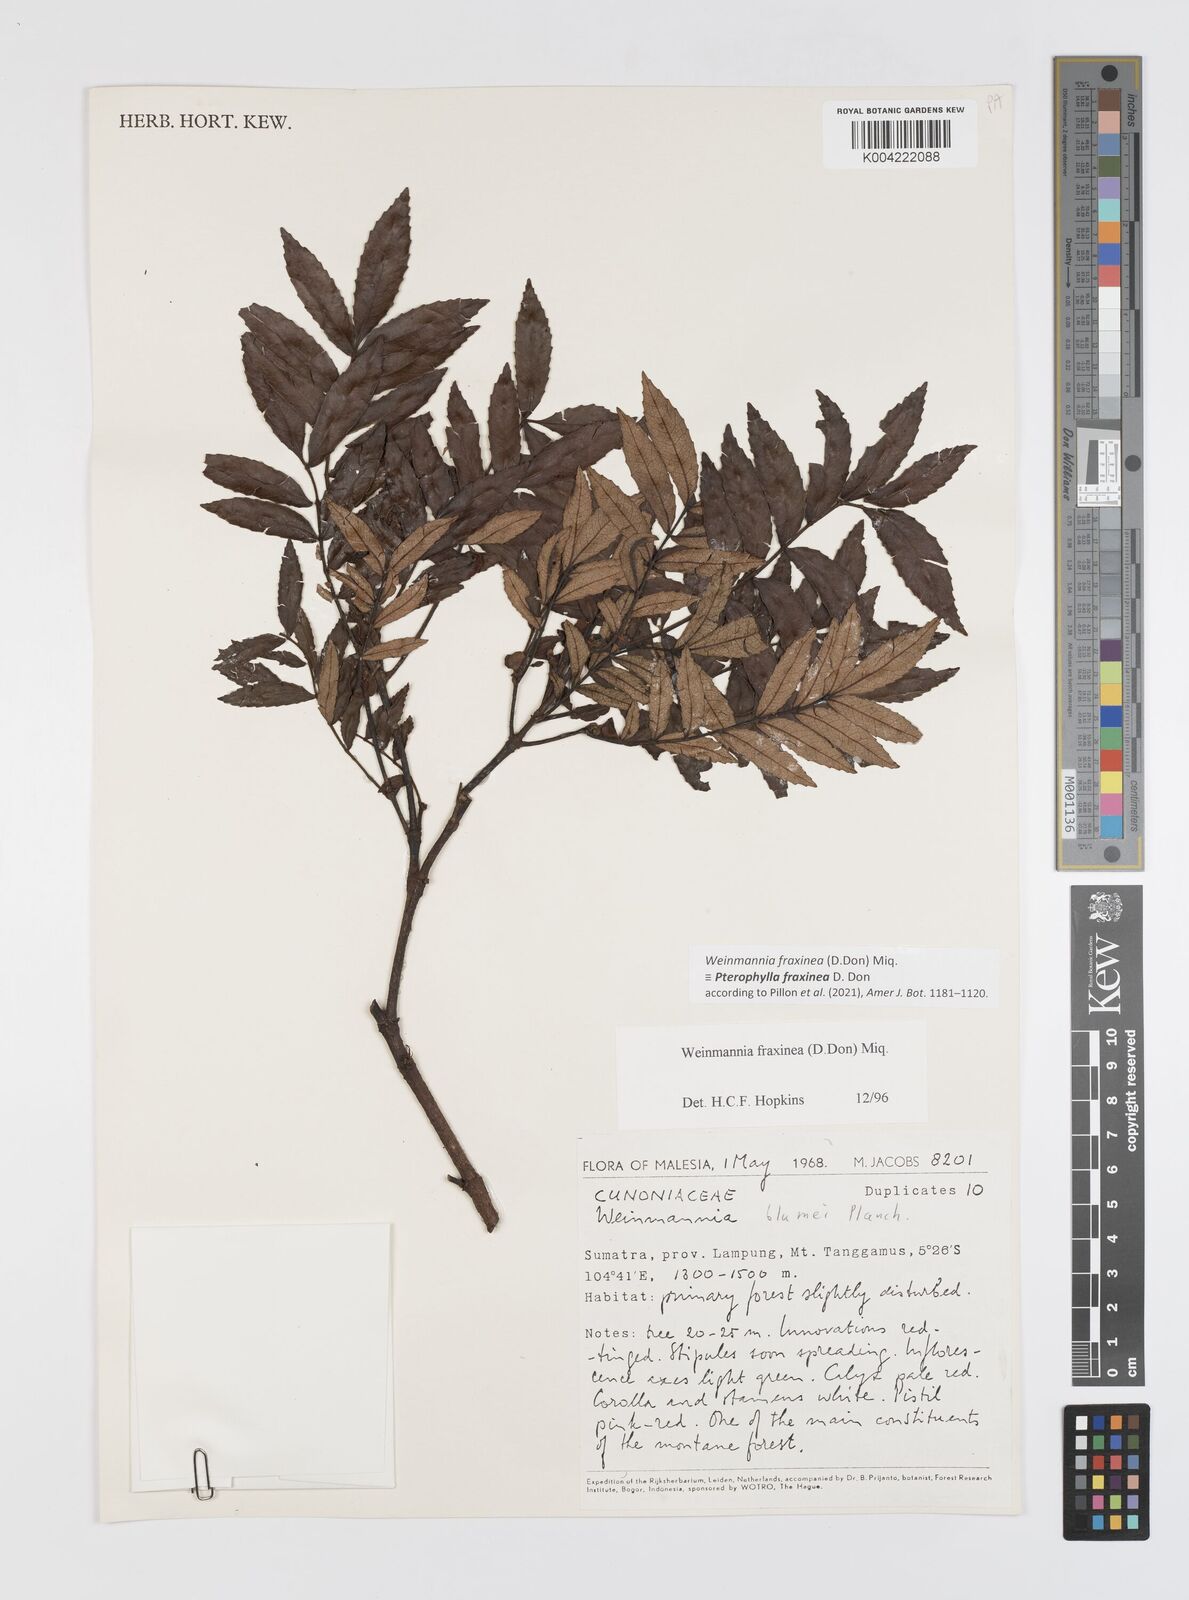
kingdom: Plantae
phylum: Tracheophyta
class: Magnoliopsida
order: Oxalidales
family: Cunoniaceae
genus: Pterophylla
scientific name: Pterophylla fraxinea
